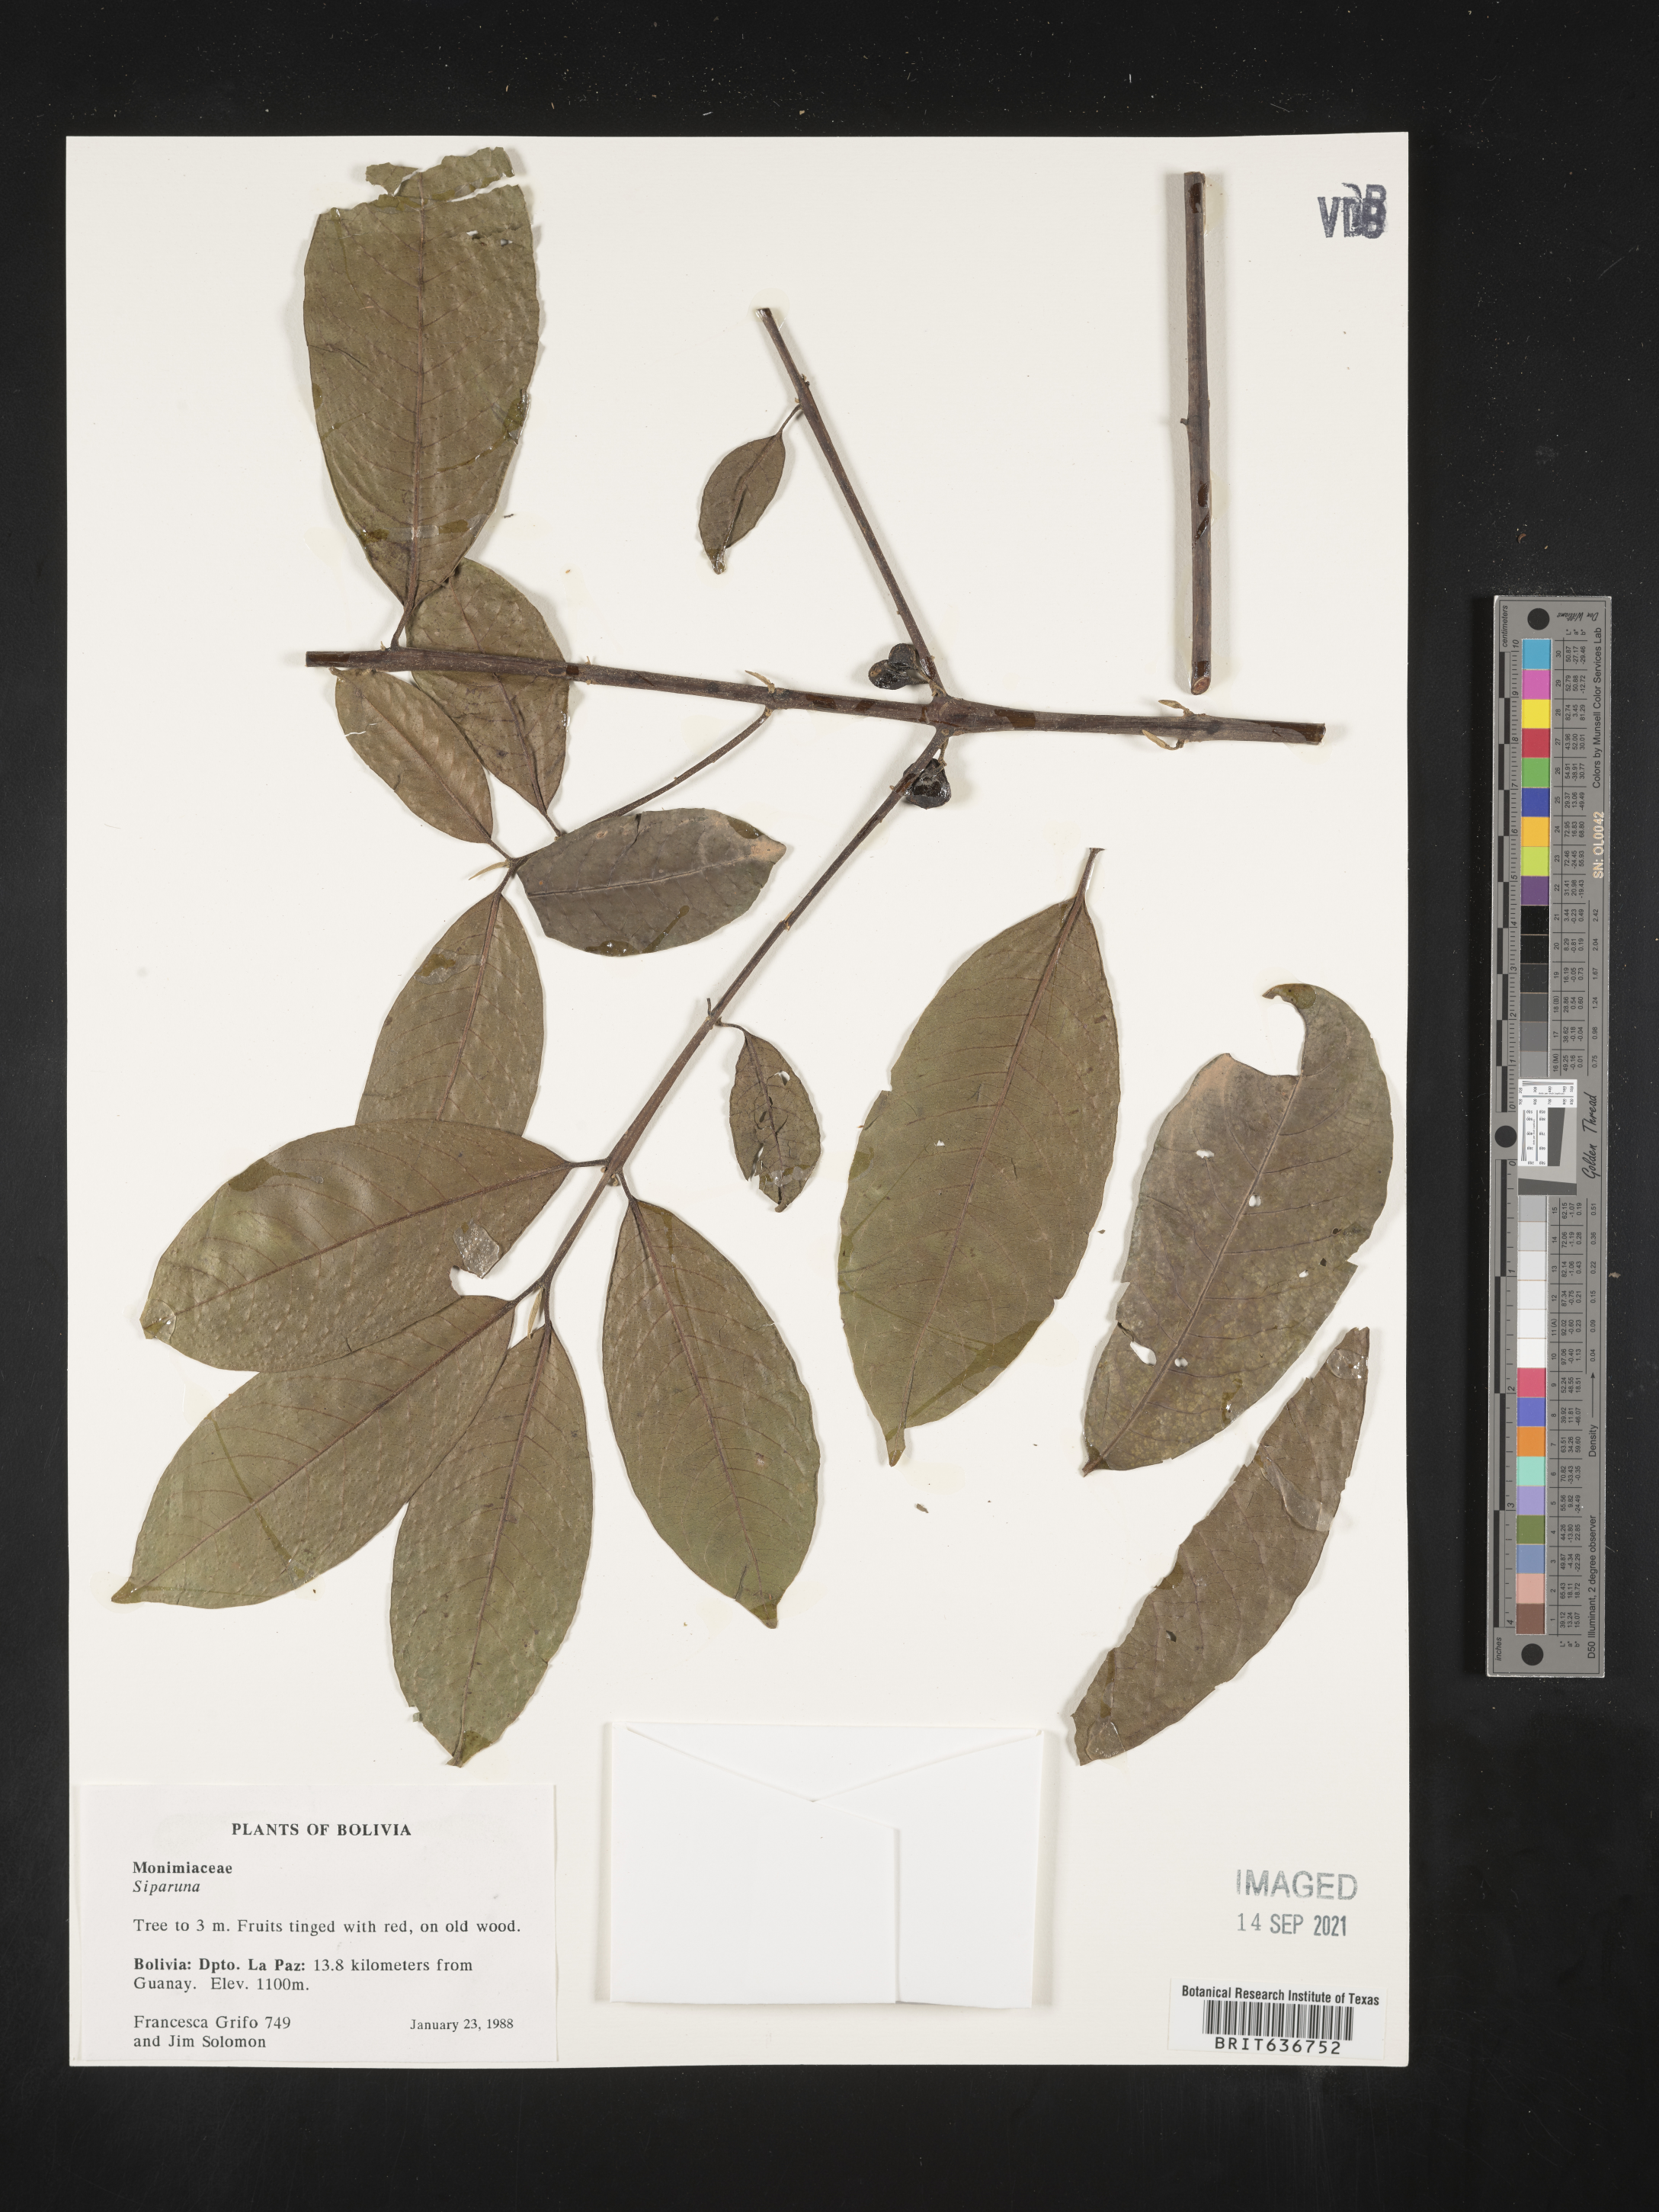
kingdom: Plantae
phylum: Tracheophyta
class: Magnoliopsida
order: Laurales
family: Siparunaceae
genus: Siparuna
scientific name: Siparuna
